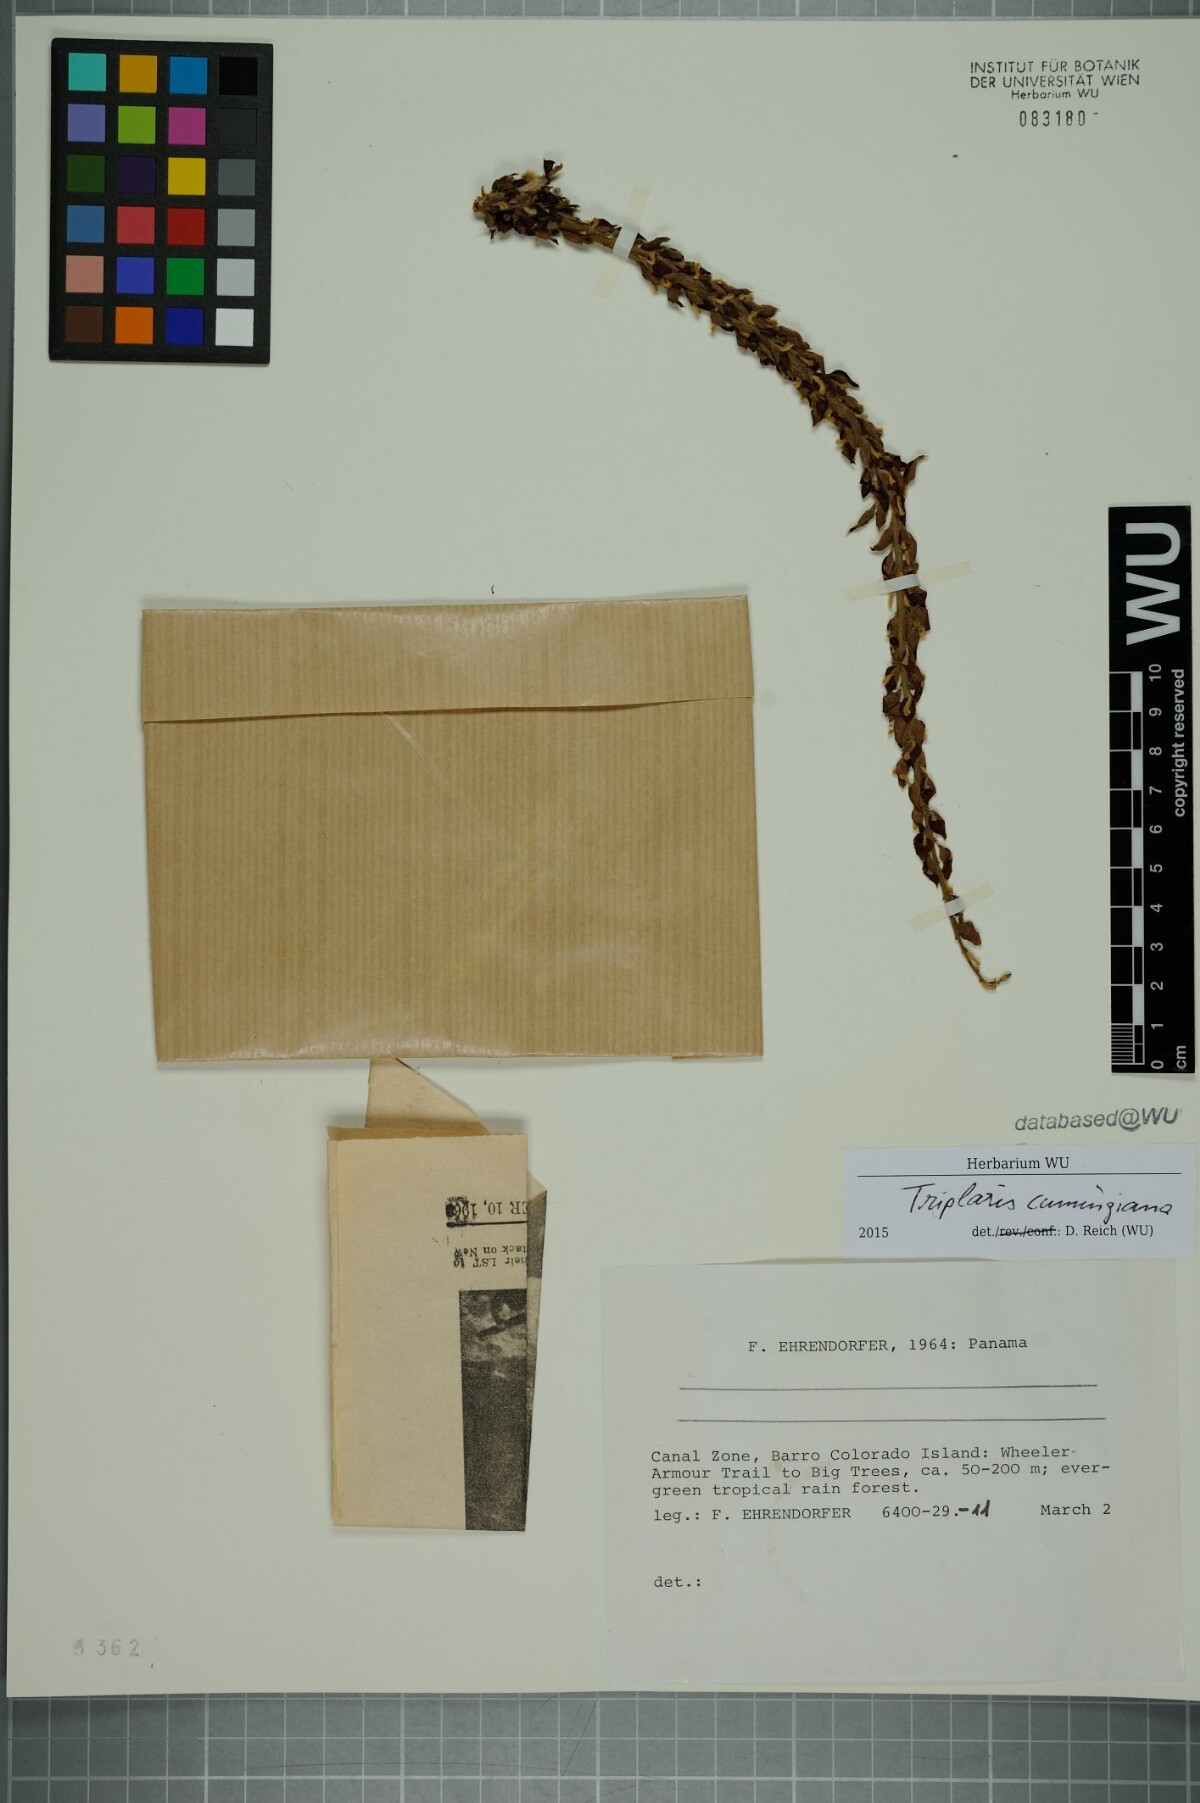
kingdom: Plantae
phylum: Tracheophyta
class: Magnoliopsida
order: Caryophyllales
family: Polygonaceae
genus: Triplaris
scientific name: Triplaris cumingiana
